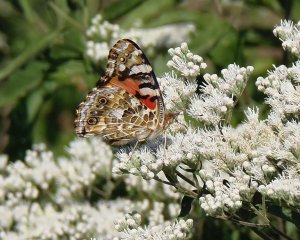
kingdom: Animalia
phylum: Arthropoda
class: Insecta
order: Lepidoptera
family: Nymphalidae
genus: Vanessa
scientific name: Vanessa cardui
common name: Painted Lady
